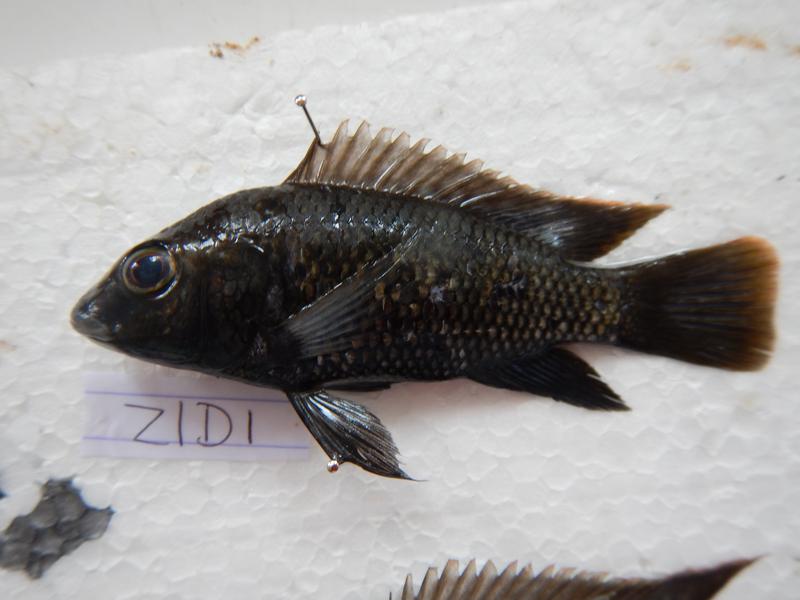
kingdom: Animalia
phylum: Chordata
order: Perciformes
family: Cichlidae
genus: Oreochromis
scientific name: Oreochromis urolepis
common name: Wami tilapia
